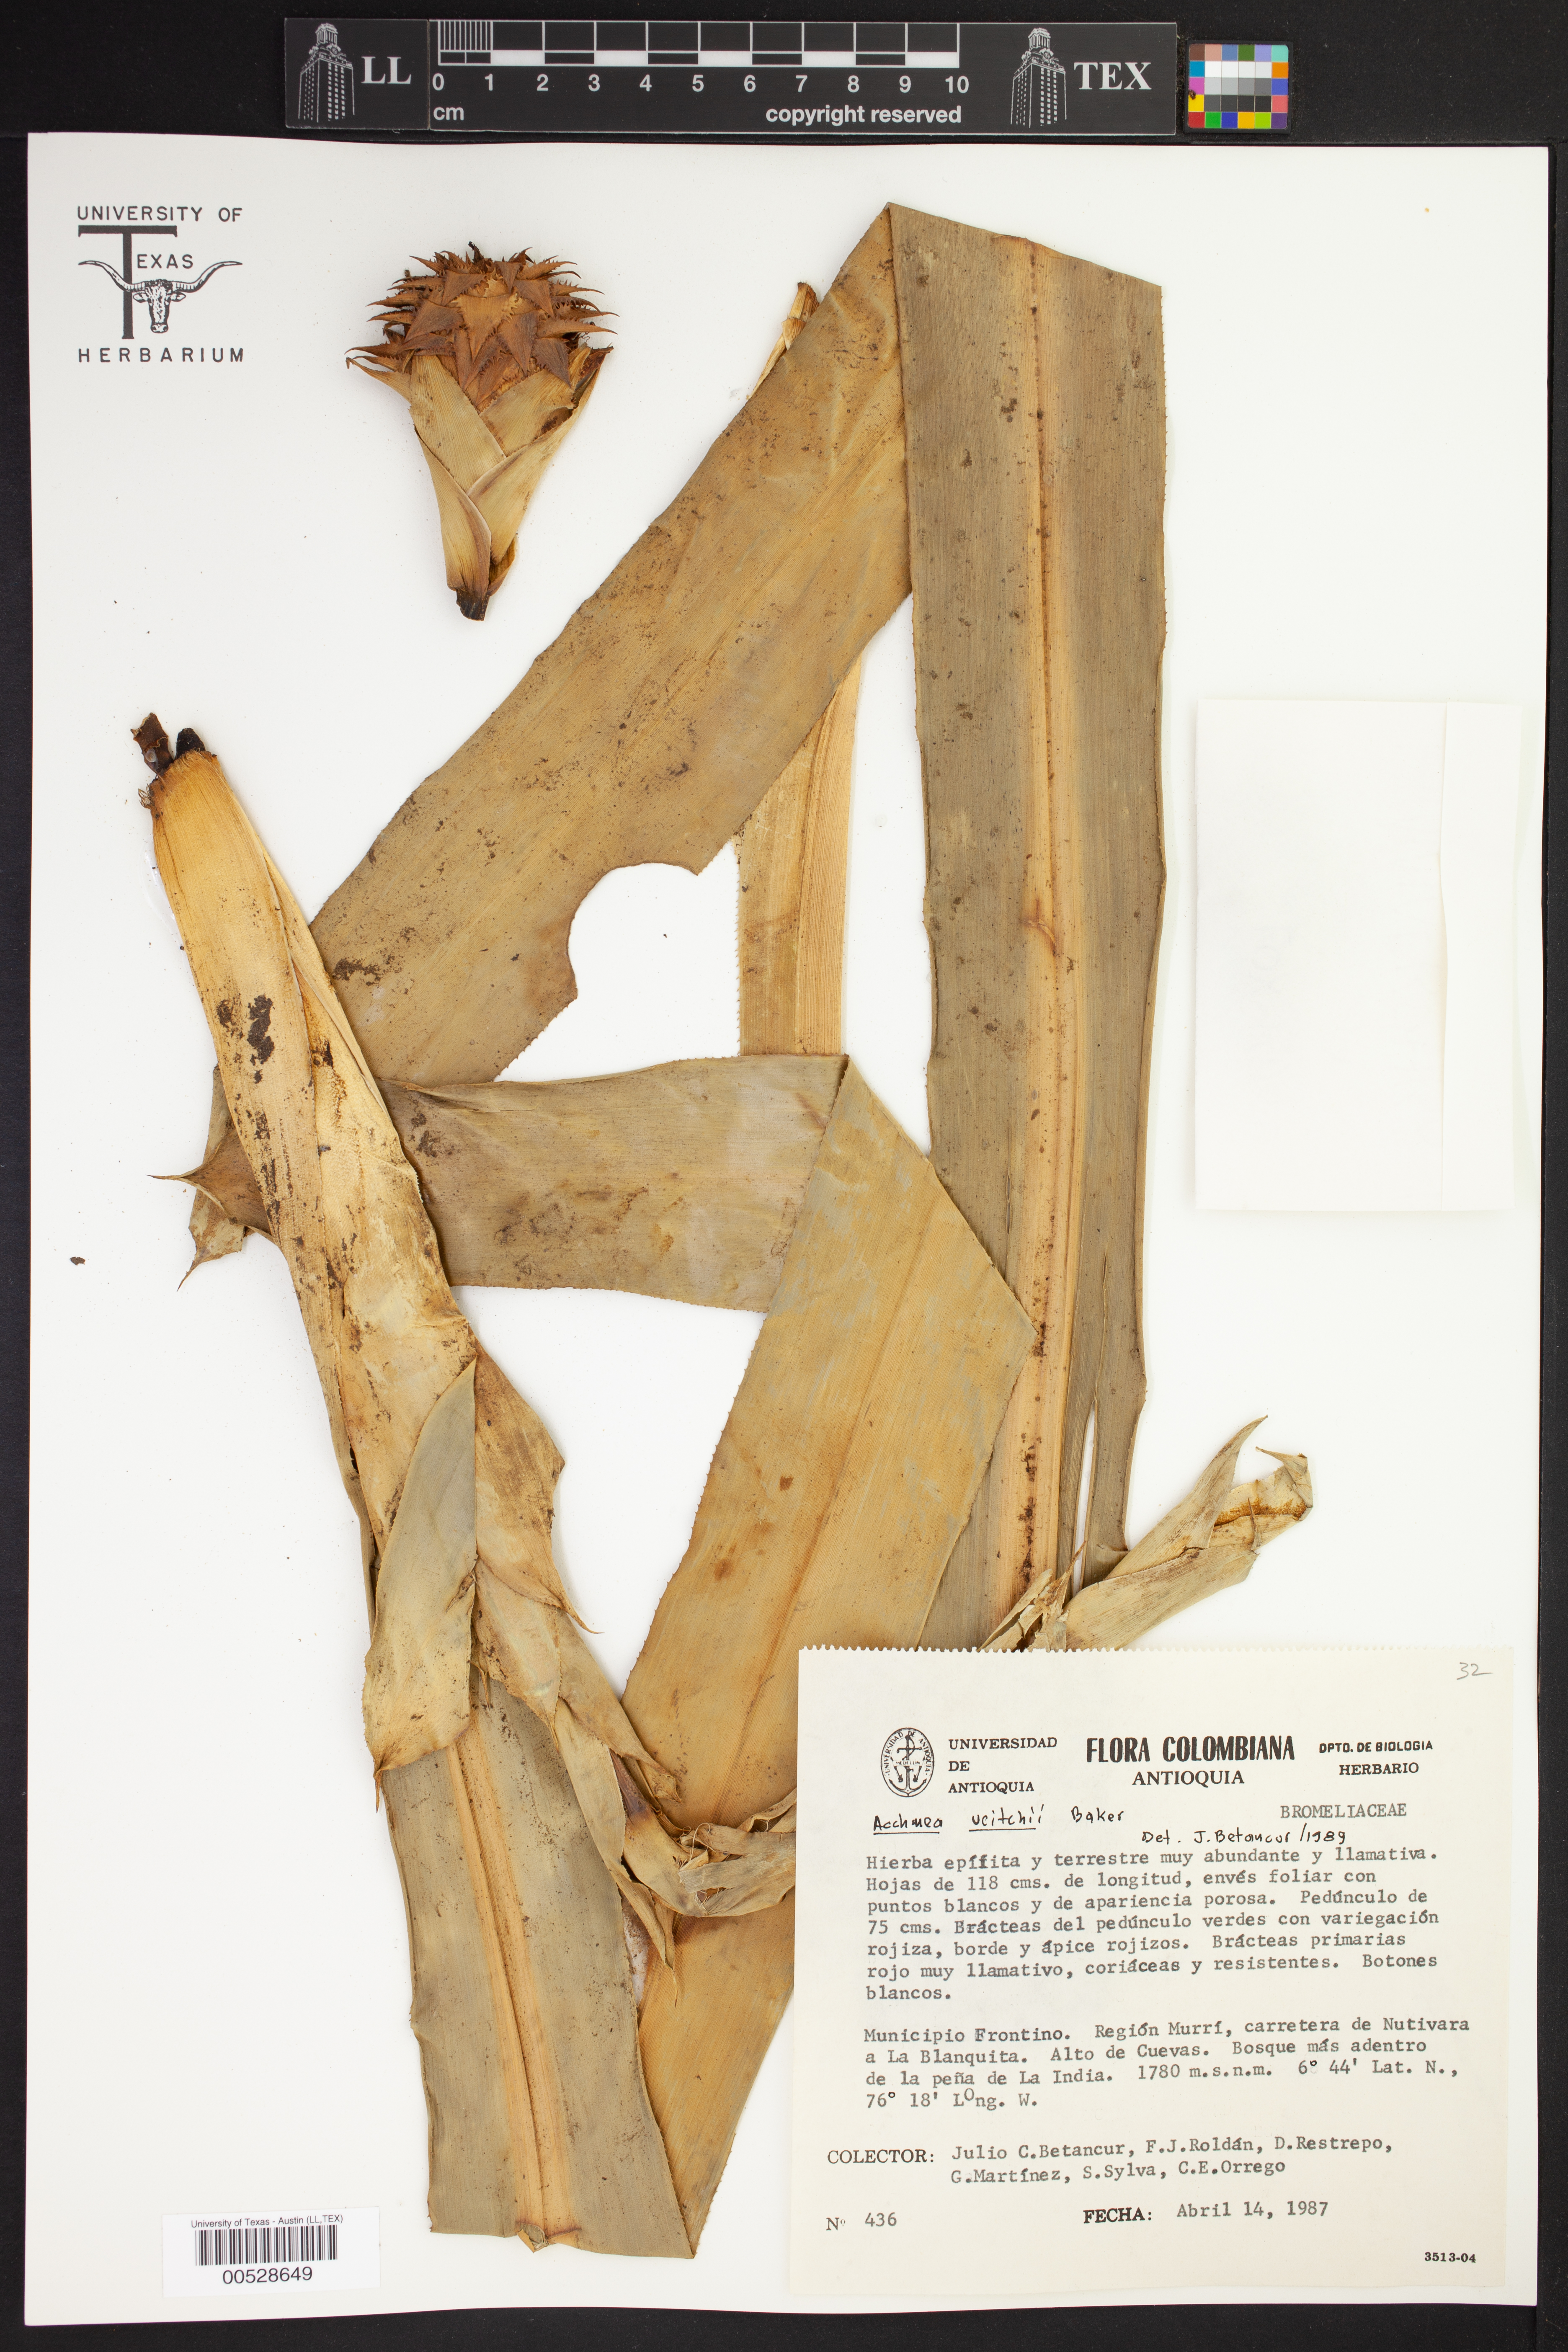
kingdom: Plantae
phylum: Tracheophyta
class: Liliopsida
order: Poales
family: Bromeliaceae
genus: Ronnbergia
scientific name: Ronnbergia veitchii
